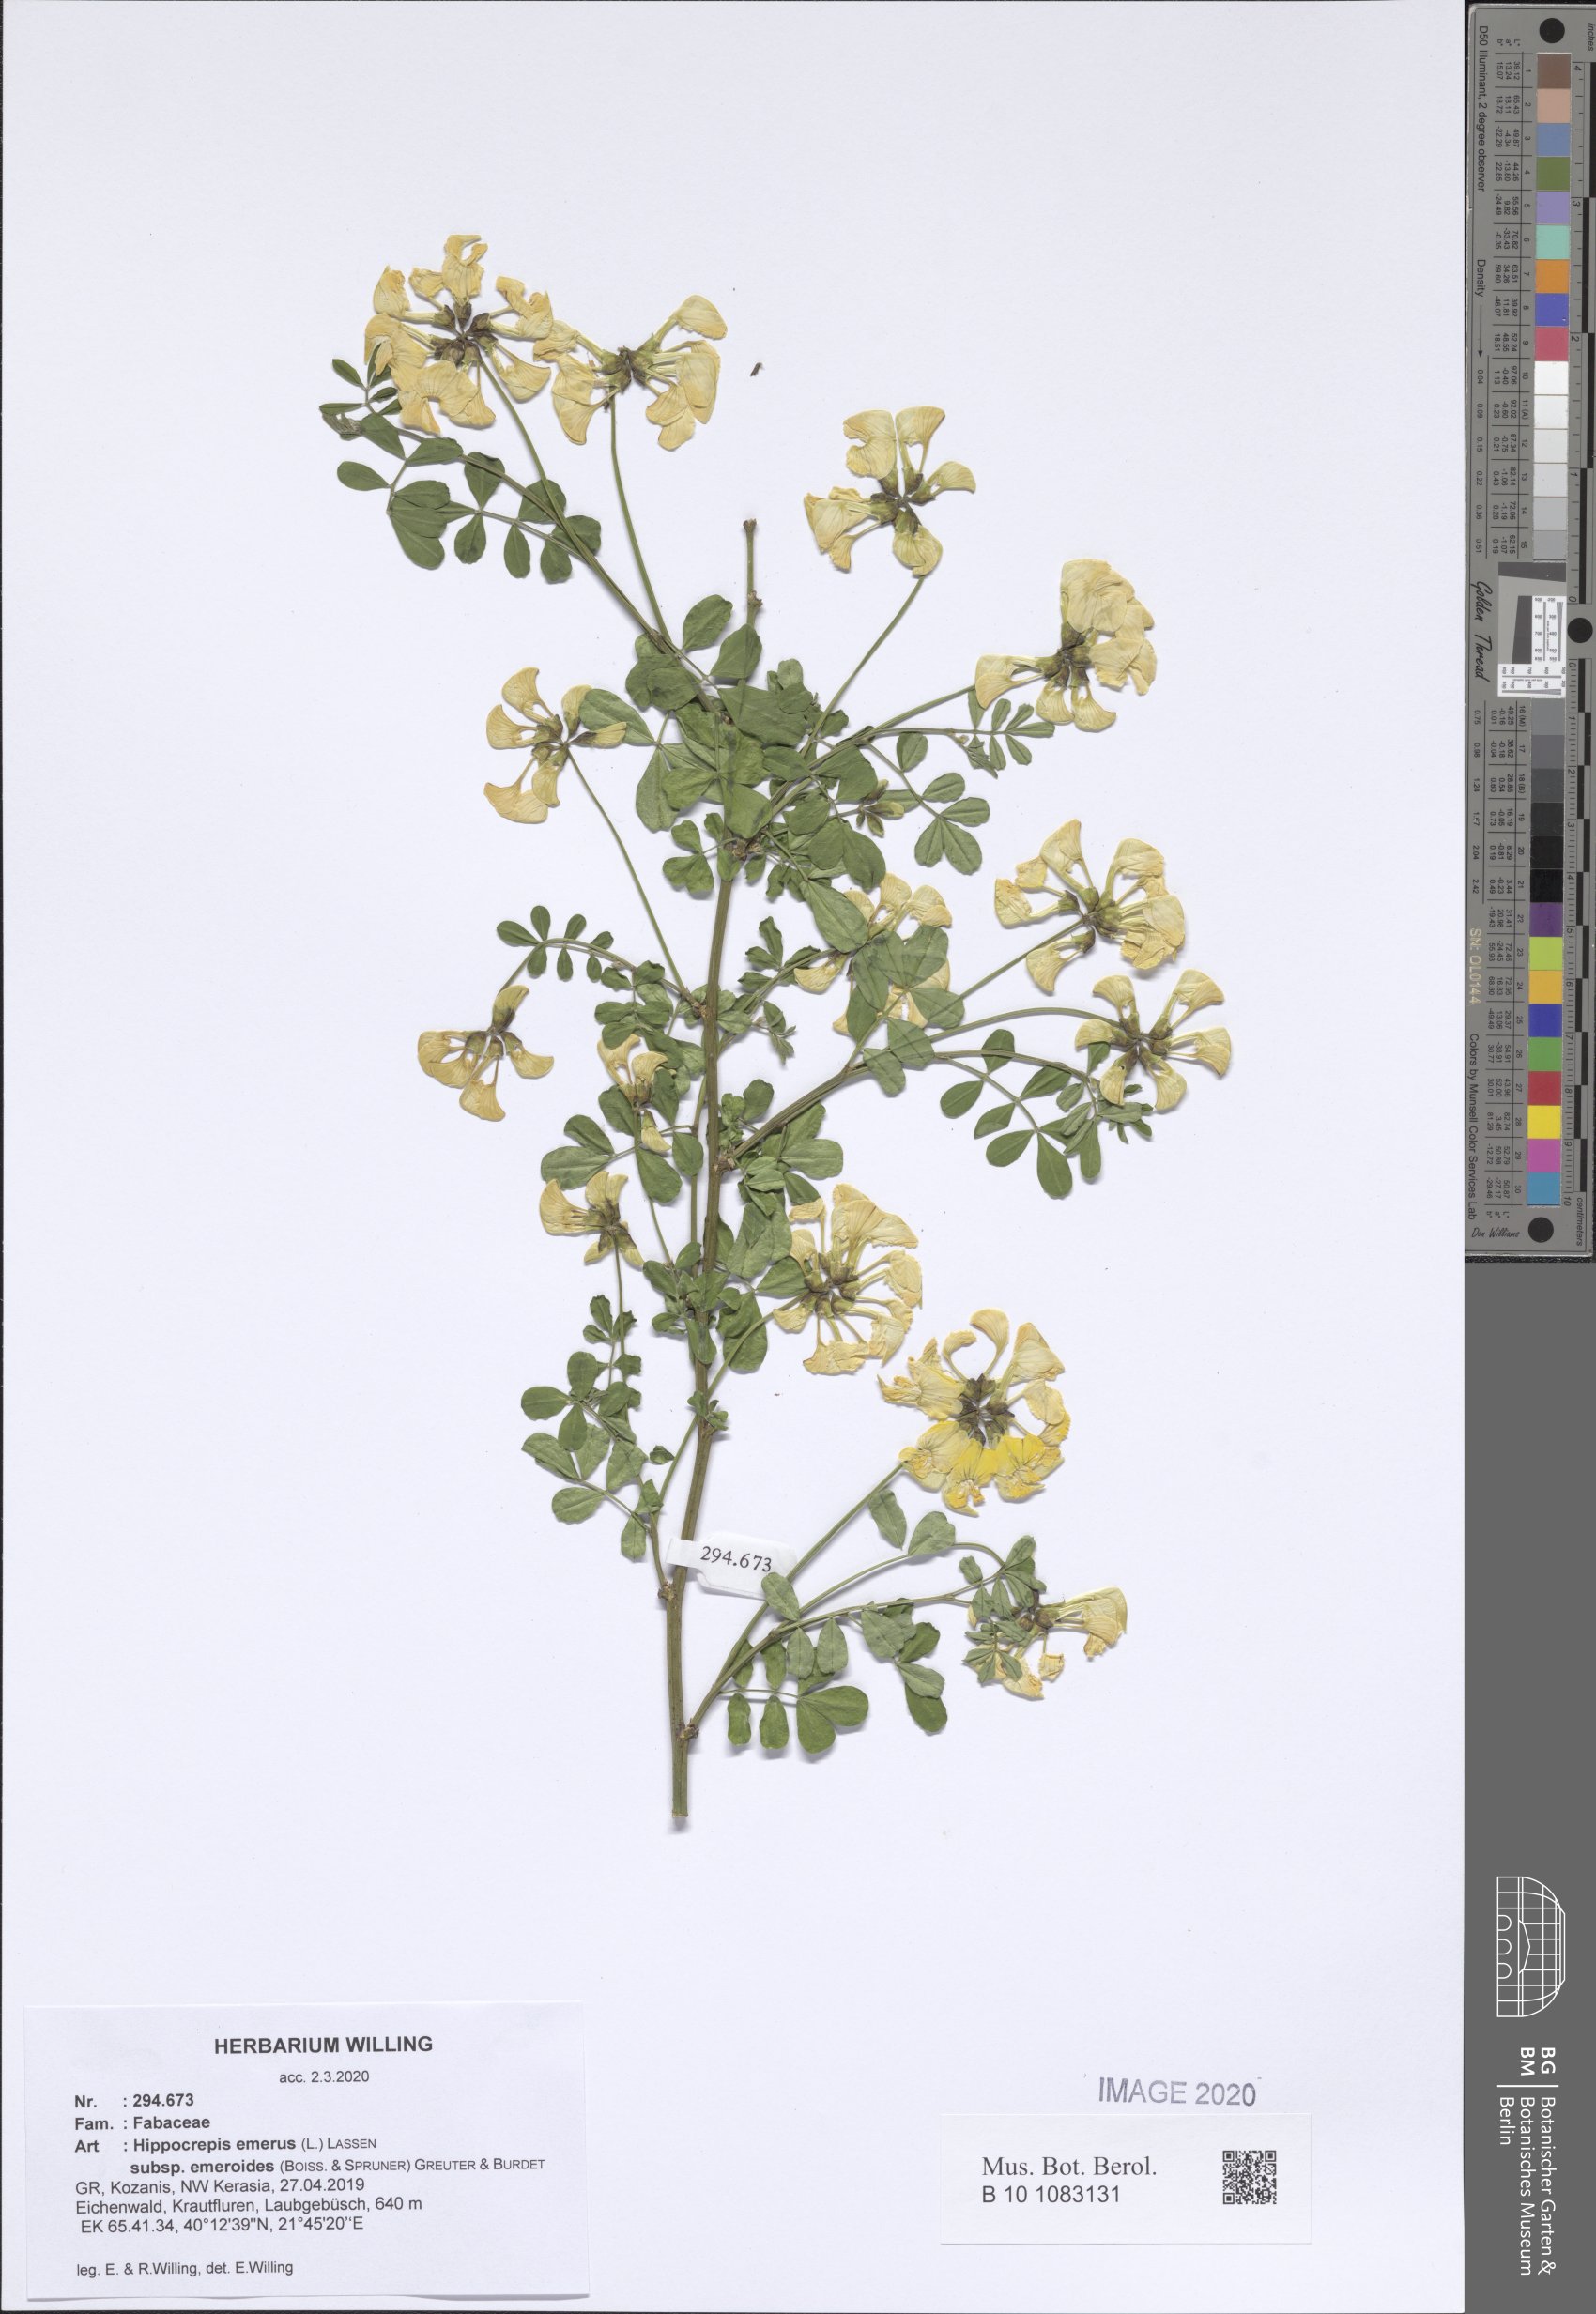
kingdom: Plantae
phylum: Tracheophyta
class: Magnoliopsida
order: Fabales
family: Fabaceae
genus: Hippocrepis
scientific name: Hippocrepis emerus
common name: Scorpion senna
